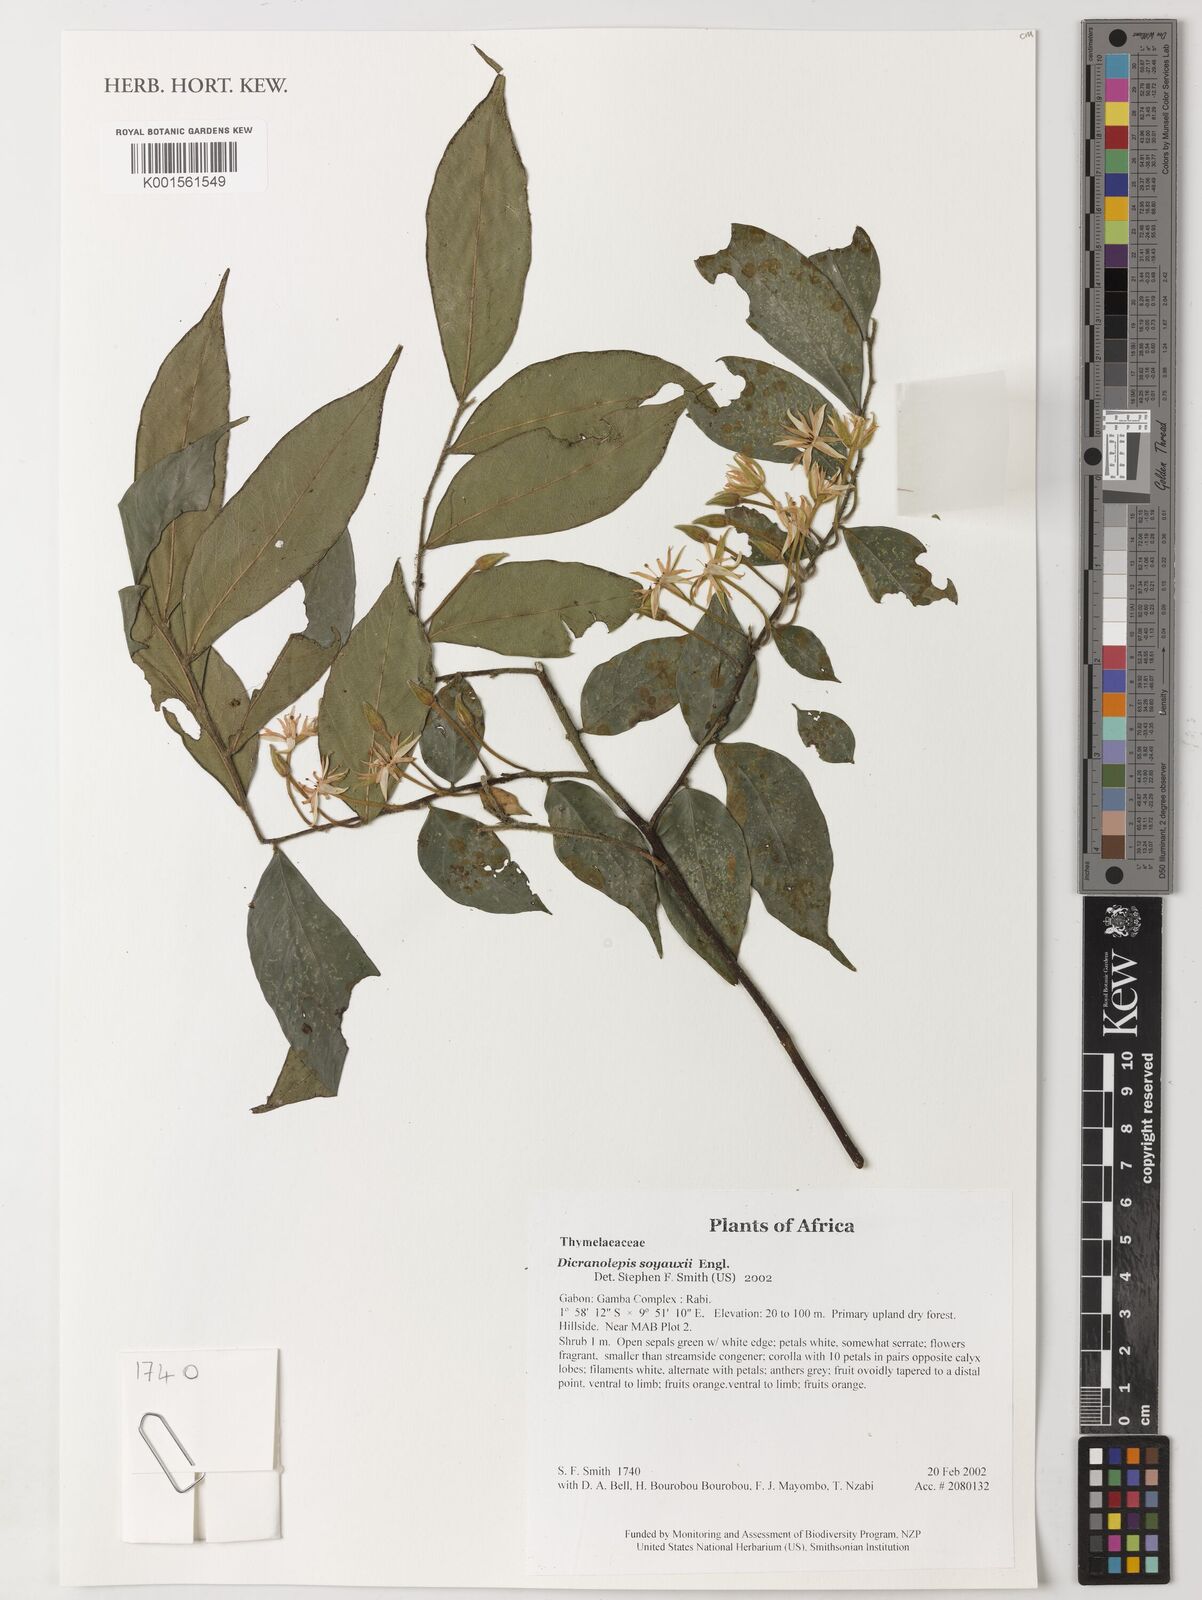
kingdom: Plantae
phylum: Tracheophyta
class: Magnoliopsida
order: Malvales
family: Thymelaeaceae
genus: Dicranolepis
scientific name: Dicranolepis soyauxii
